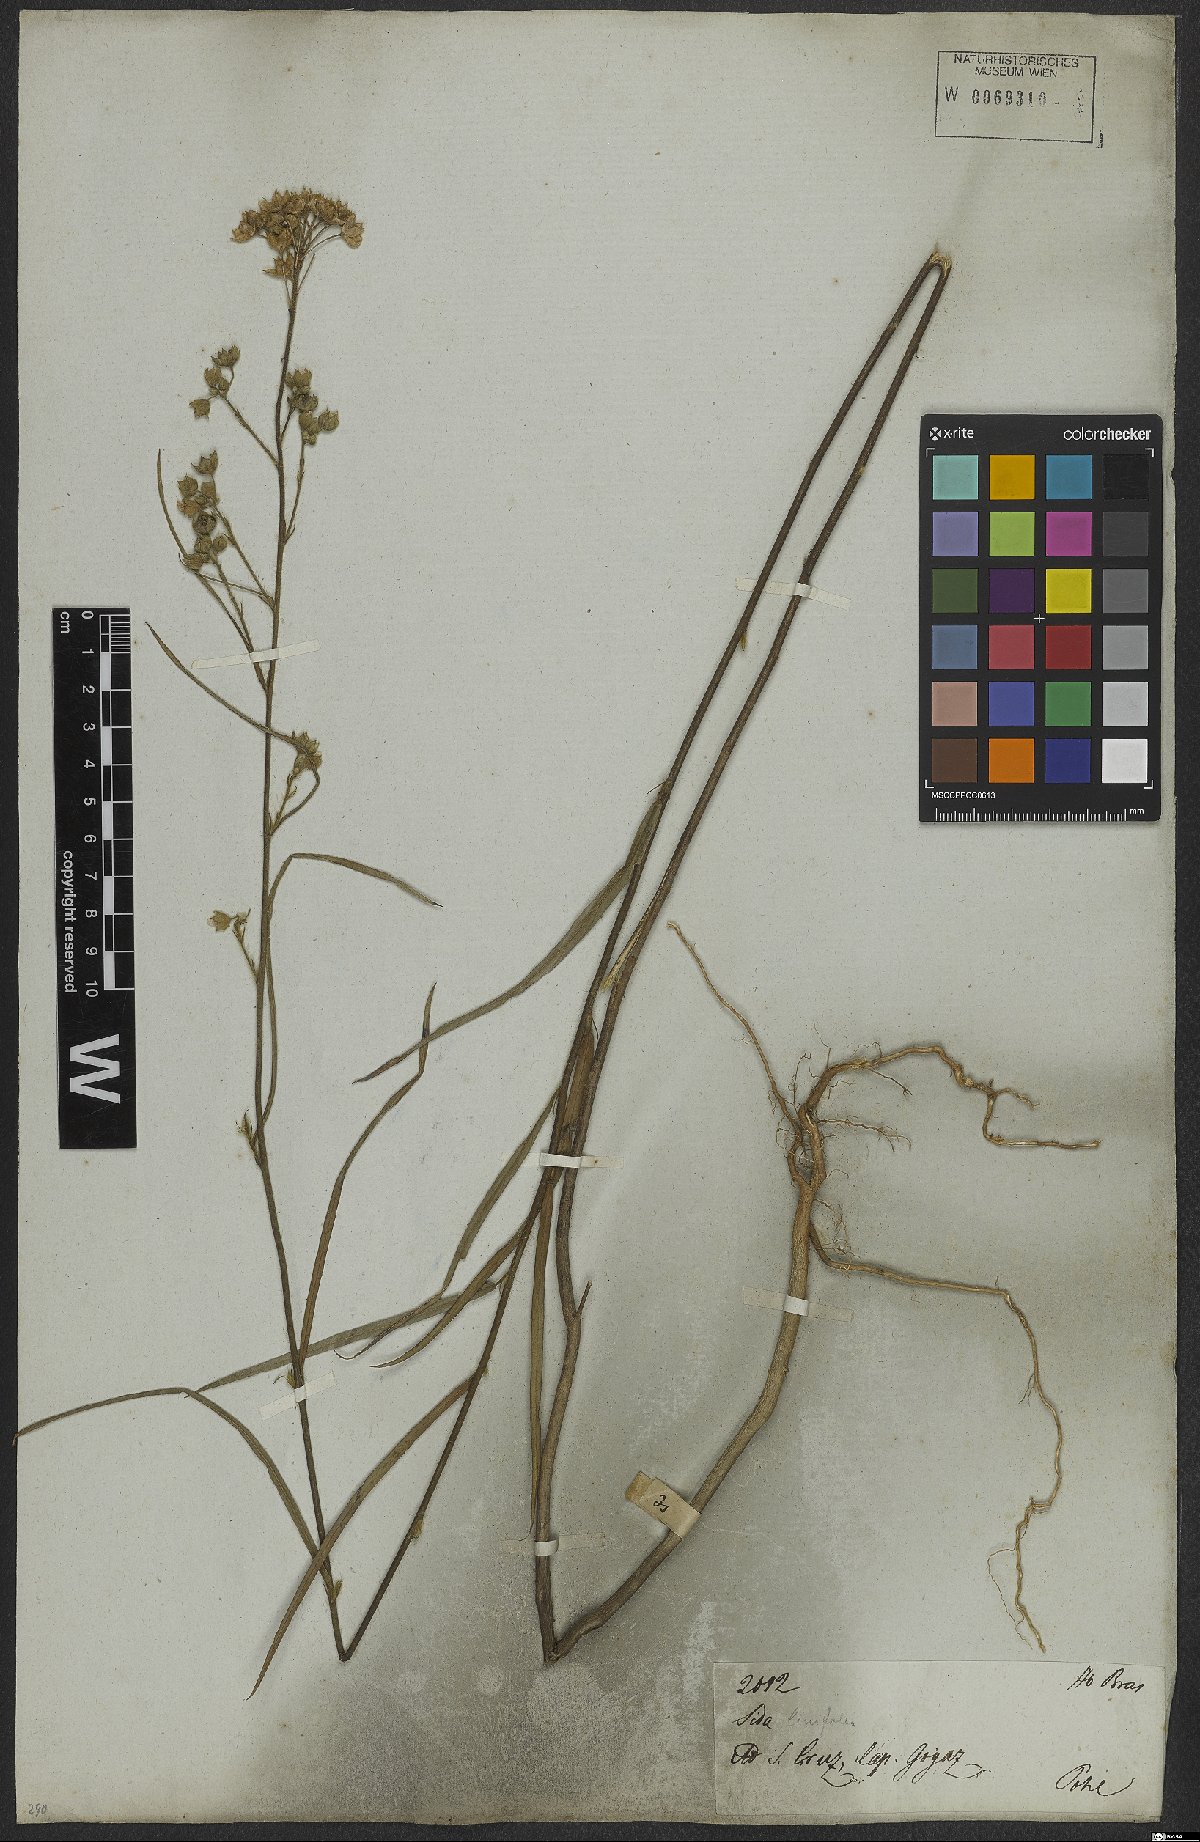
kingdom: Plantae
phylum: Tracheophyta
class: Magnoliopsida
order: Malvales
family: Malvaceae
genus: Sida
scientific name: Sida linifolia
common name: Flaxleaf fanpetals
